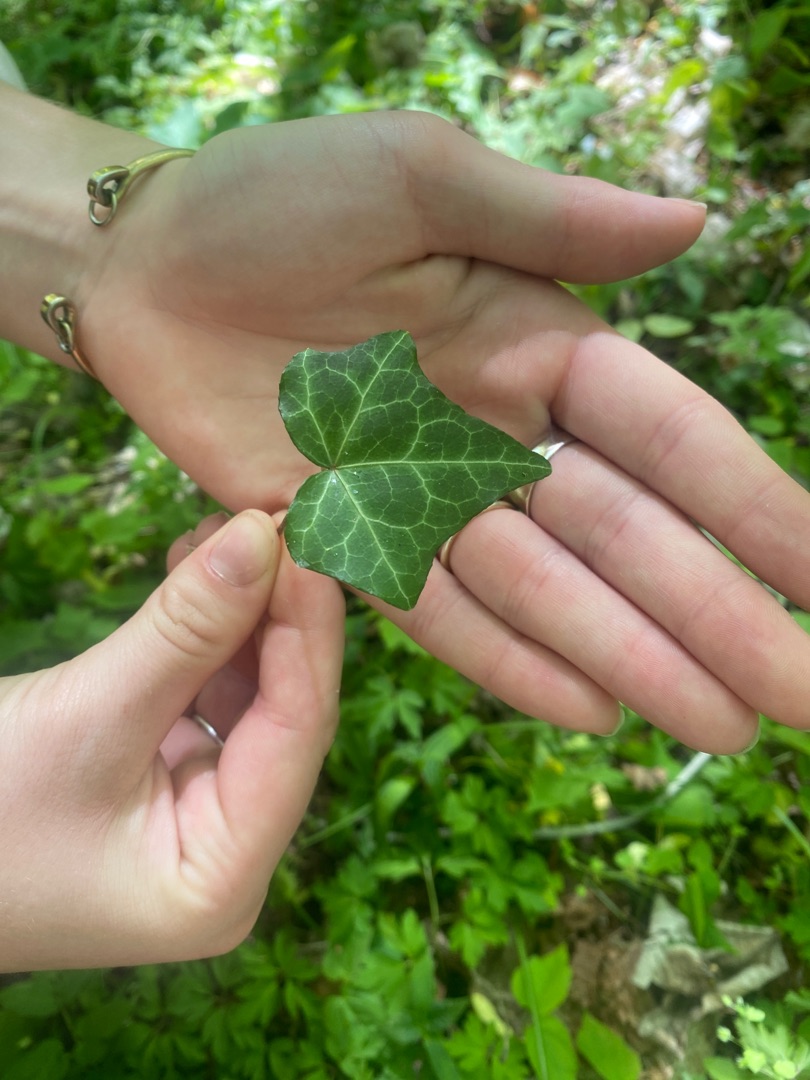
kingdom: Plantae
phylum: Tracheophyta
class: Magnoliopsida
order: Apiales
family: Araliaceae
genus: Hedera
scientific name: Hedera helix
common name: Vedbend
